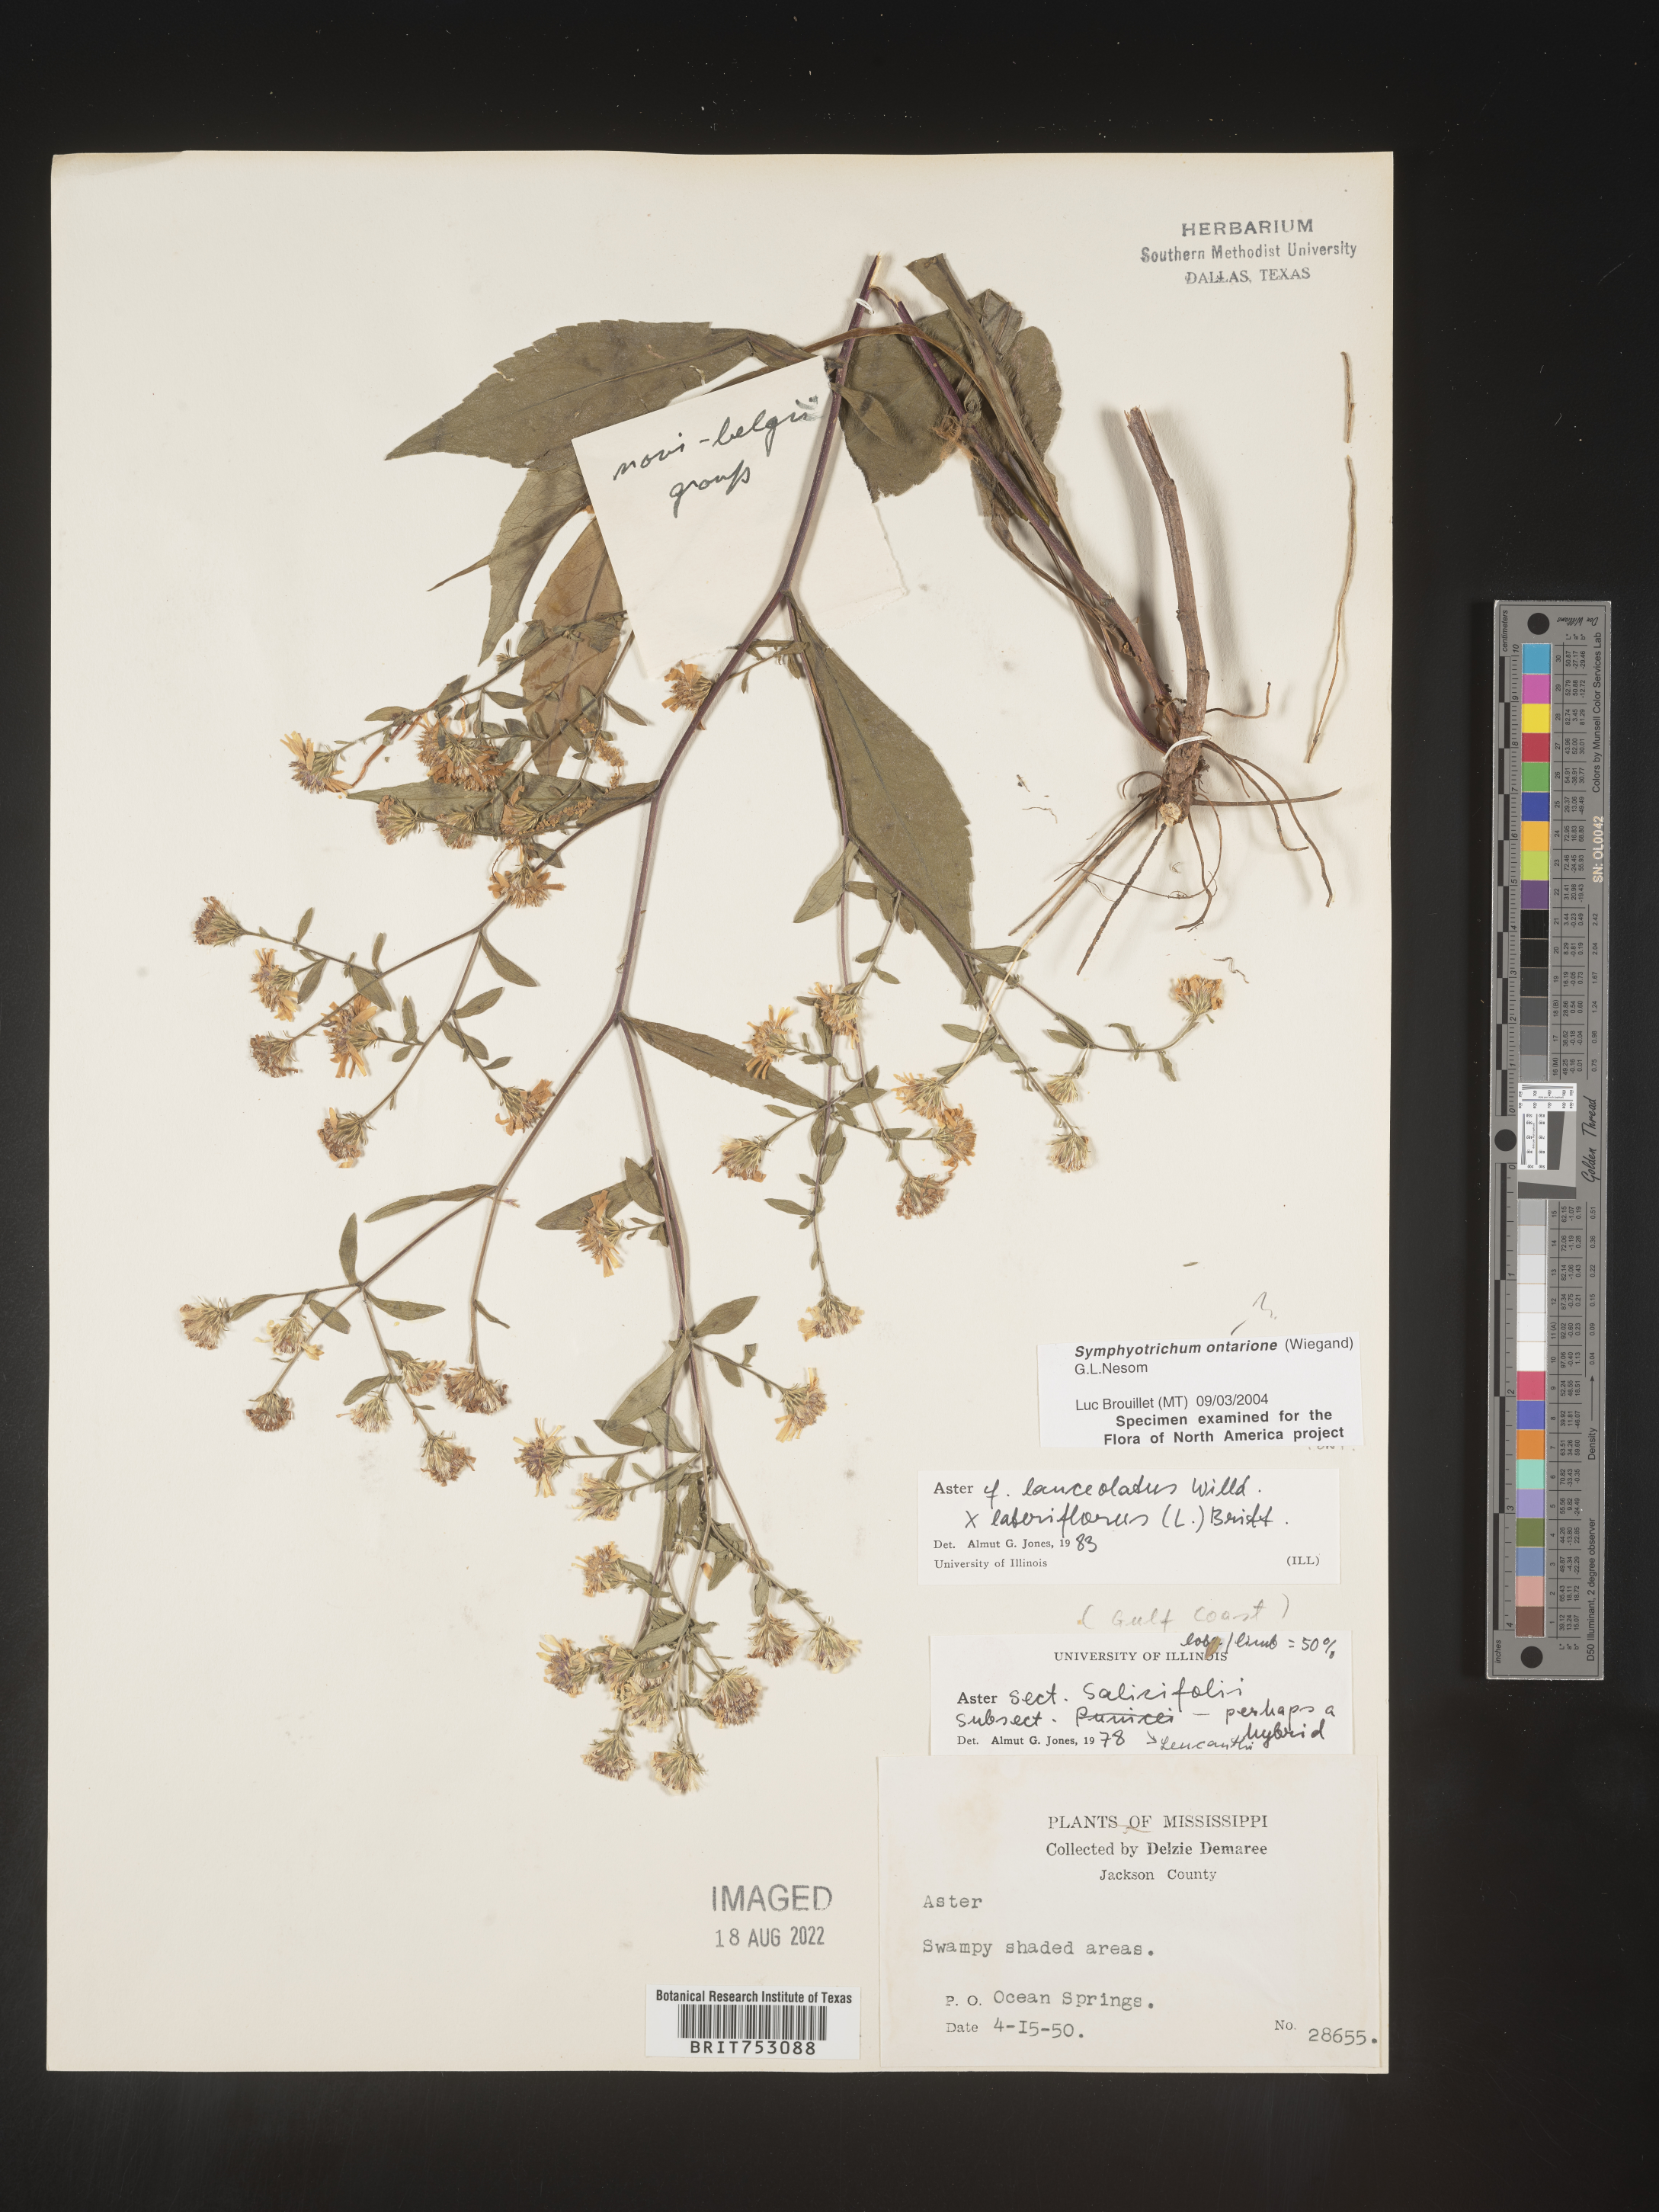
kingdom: Plantae
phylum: Tracheophyta
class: Magnoliopsida
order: Asterales
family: Asteraceae
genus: Symphyotrichum
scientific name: Symphyotrichum ontarionis
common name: Bottomland aster
